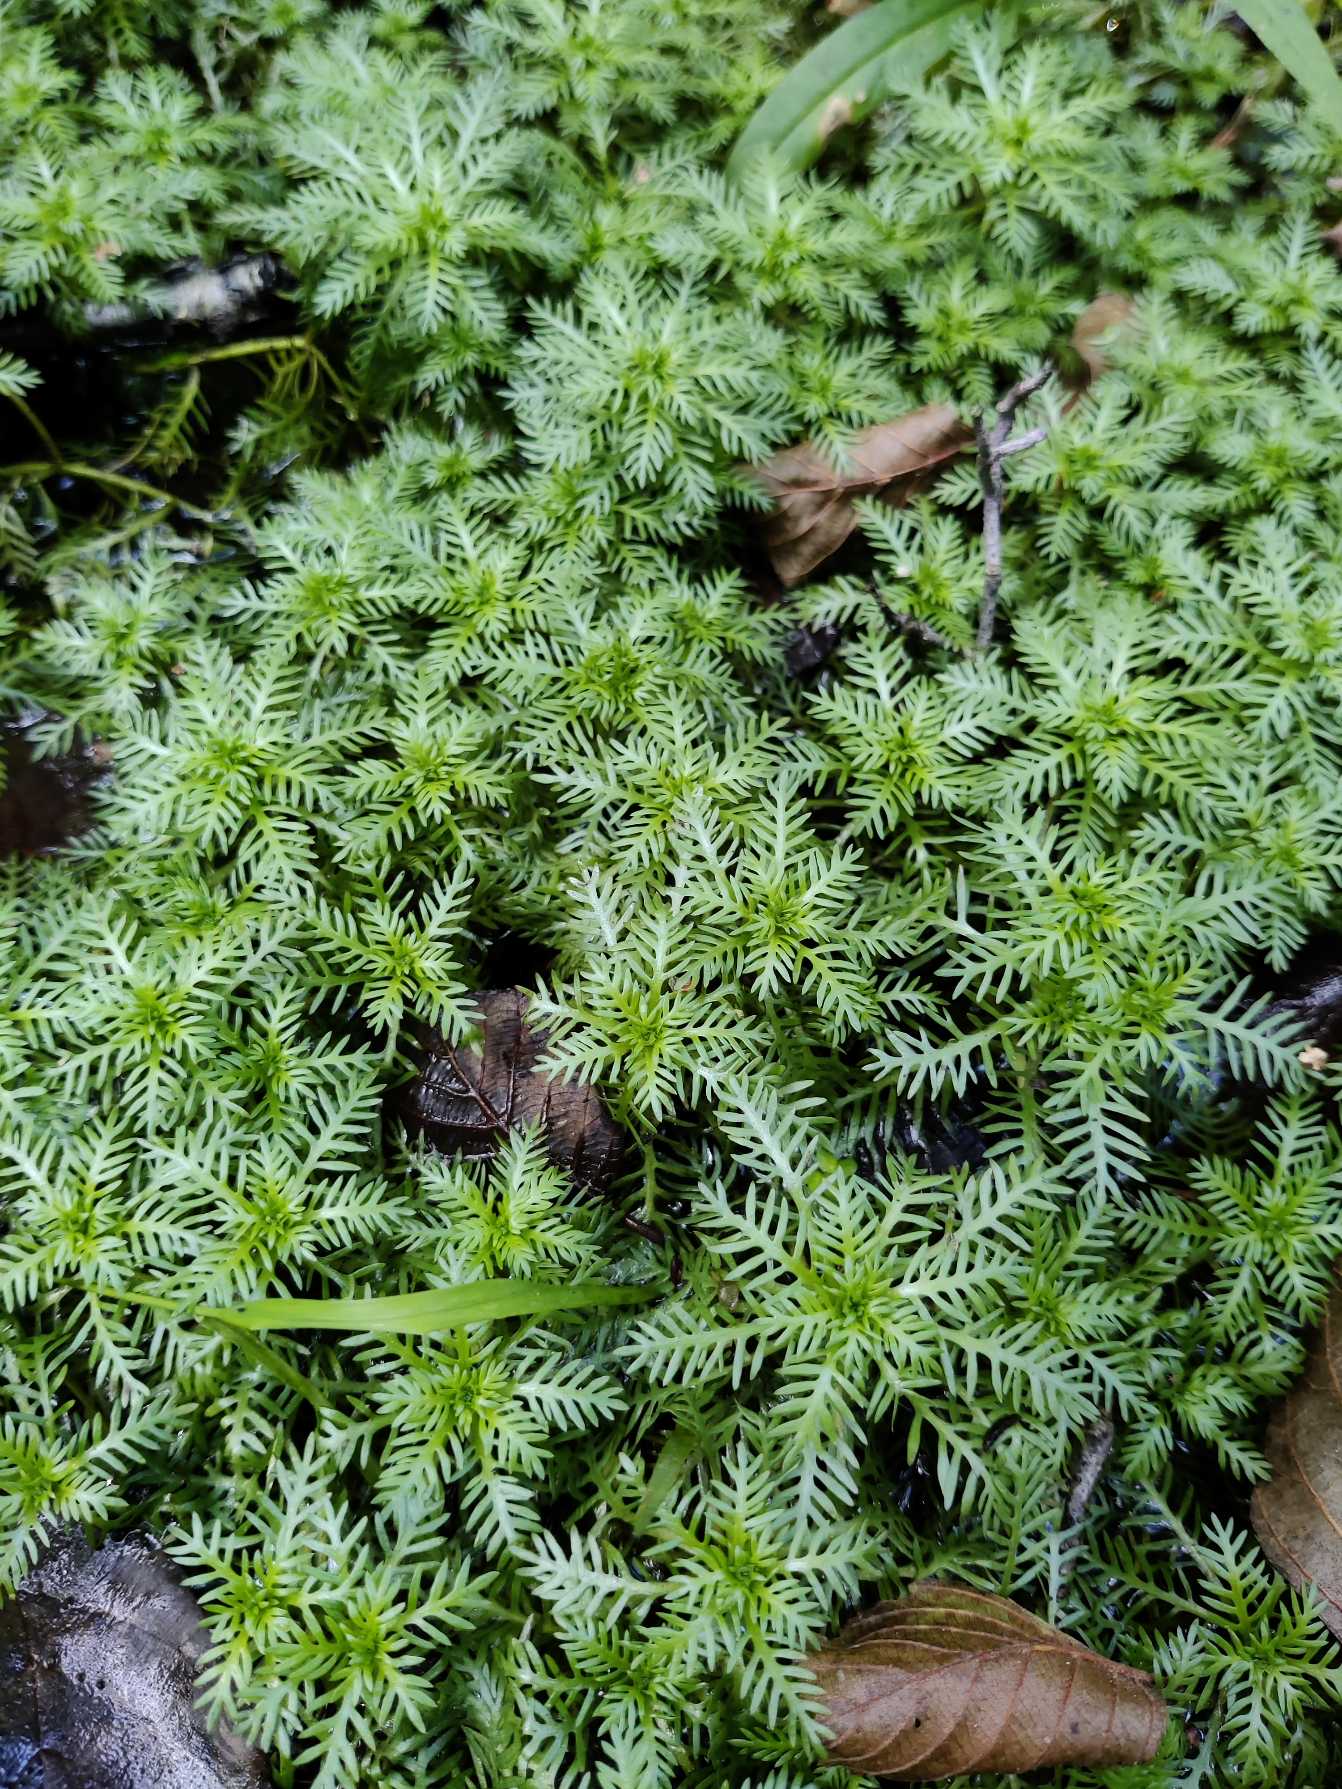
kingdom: Plantae
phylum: Tracheophyta
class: Magnoliopsida
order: Ericales
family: Primulaceae
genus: Hottonia
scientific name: Hottonia palustris
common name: Vandrøllike
